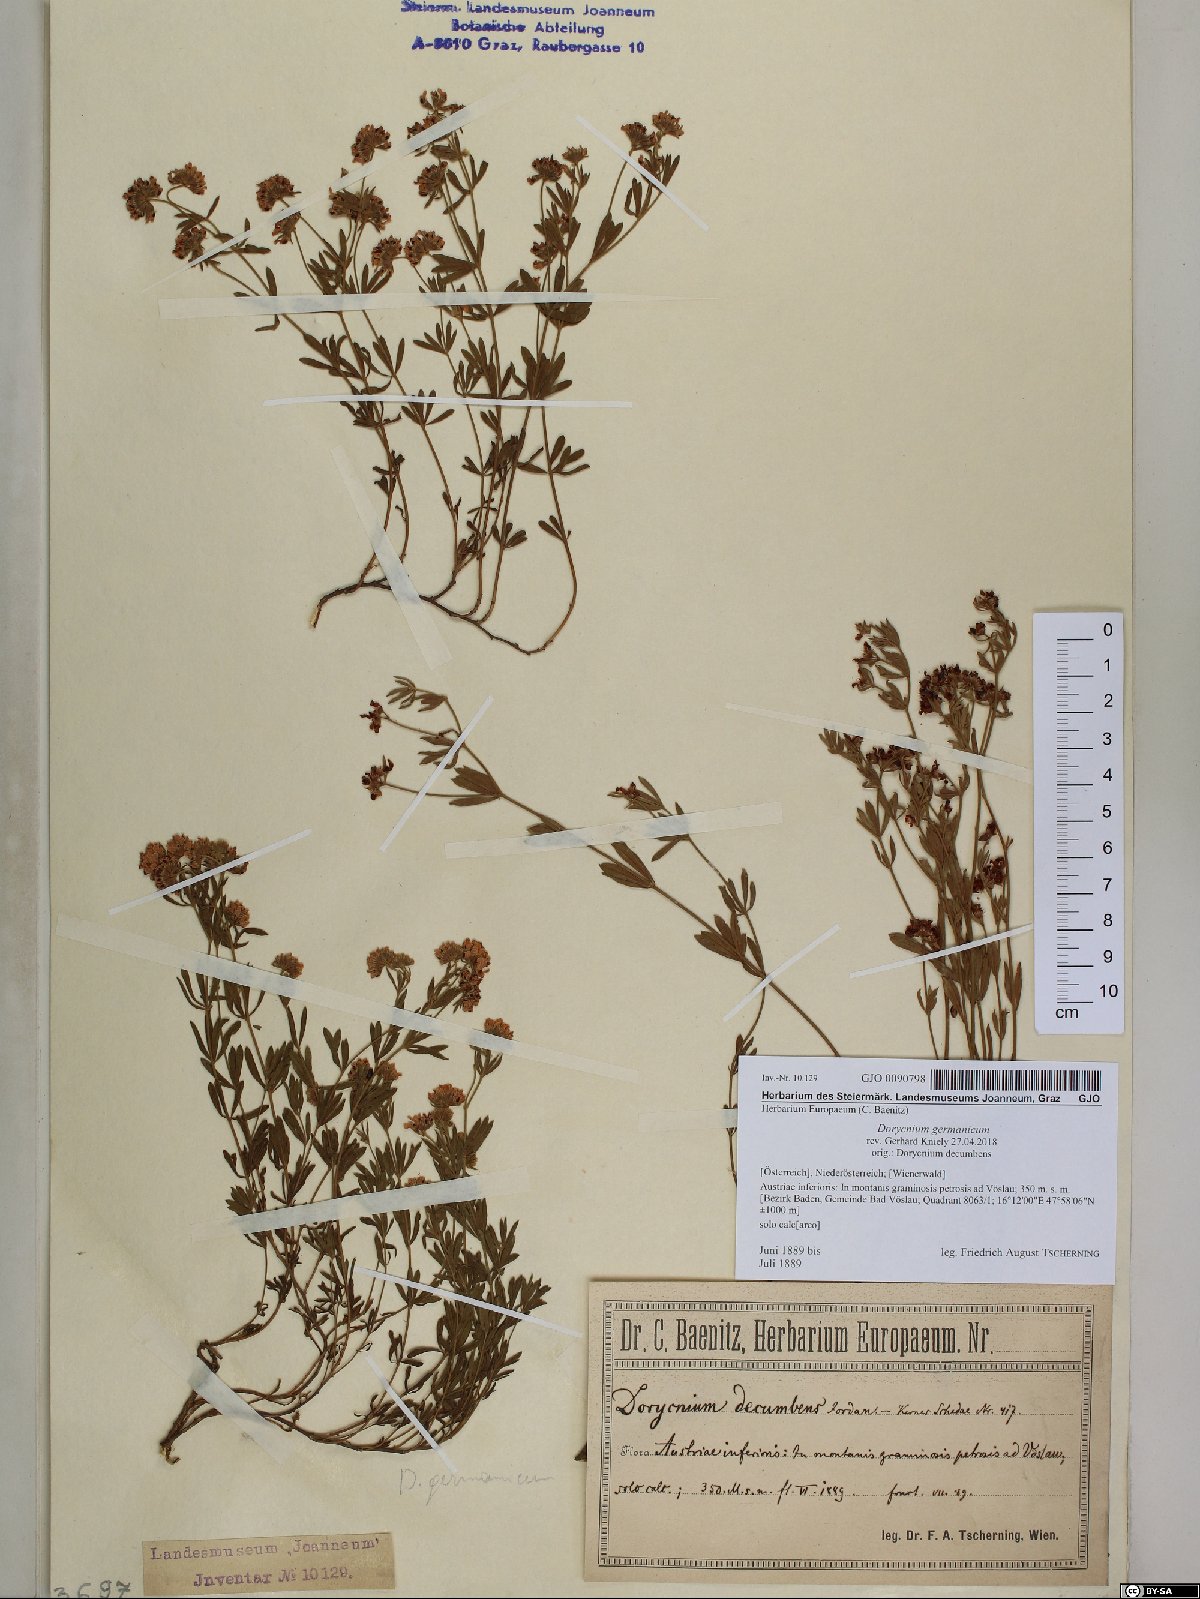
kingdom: Plantae
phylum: Tracheophyta
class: Magnoliopsida
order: Fabales
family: Fabaceae
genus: Lotus
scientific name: Lotus germanicus
